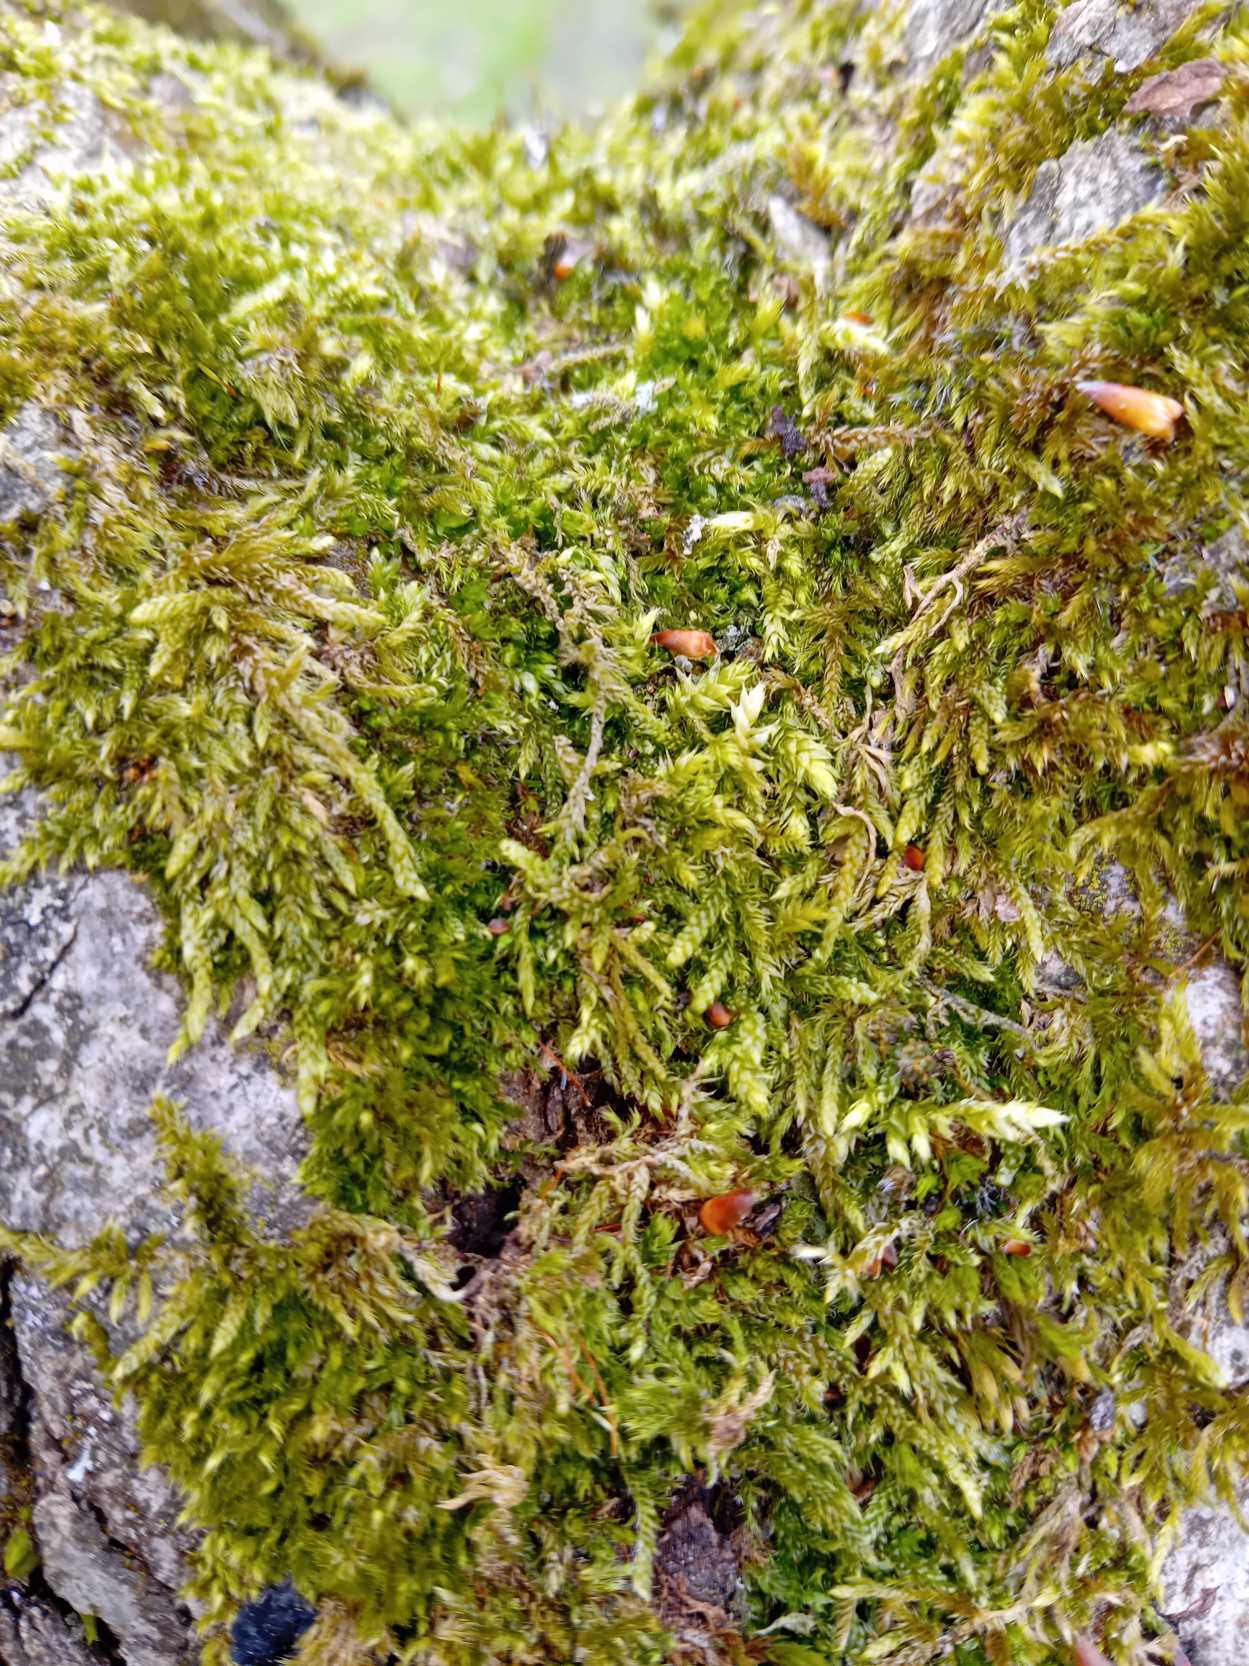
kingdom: Plantae
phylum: Bryophyta
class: Bryopsida
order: Hypnales
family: Hypnaceae
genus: Hypnum
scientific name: Hypnum cupressiforme
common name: Almindelig cypresmos
